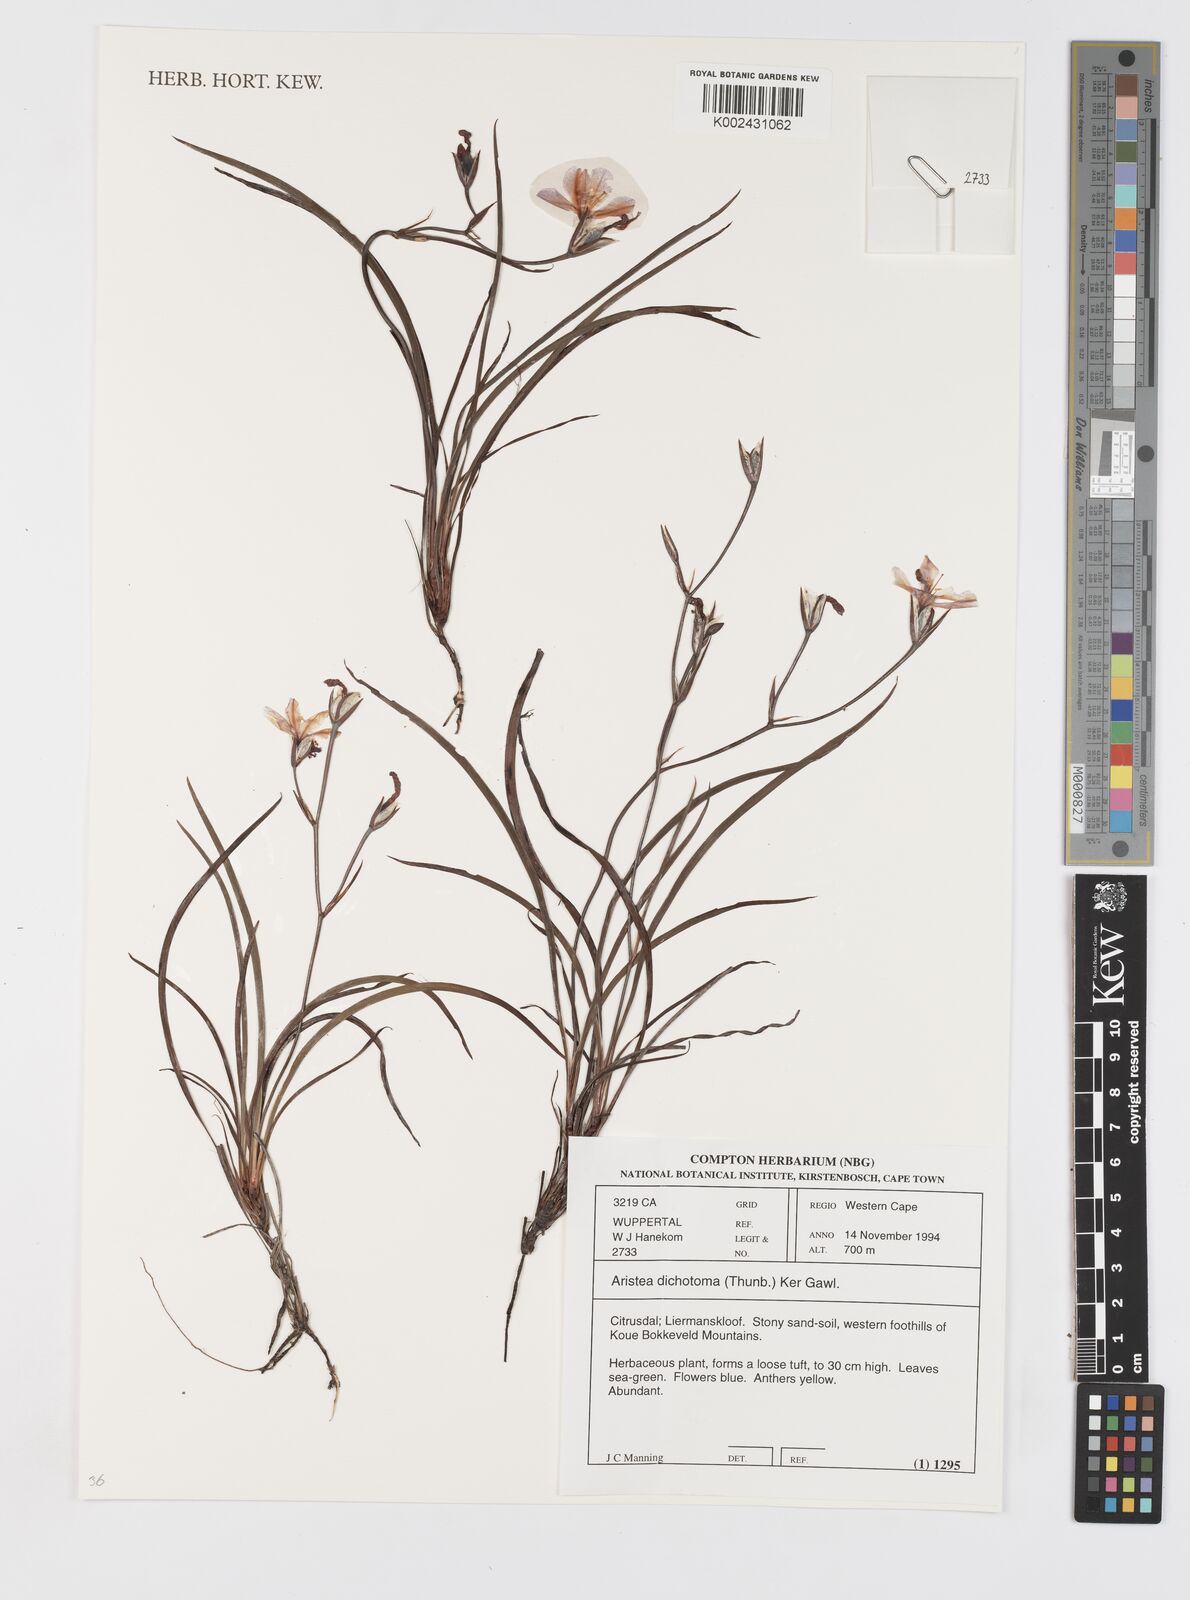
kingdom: Plantae
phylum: Tracheophyta
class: Liliopsida
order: Asparagales
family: Iridaceae
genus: Aristea
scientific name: Aristea dichotoma
